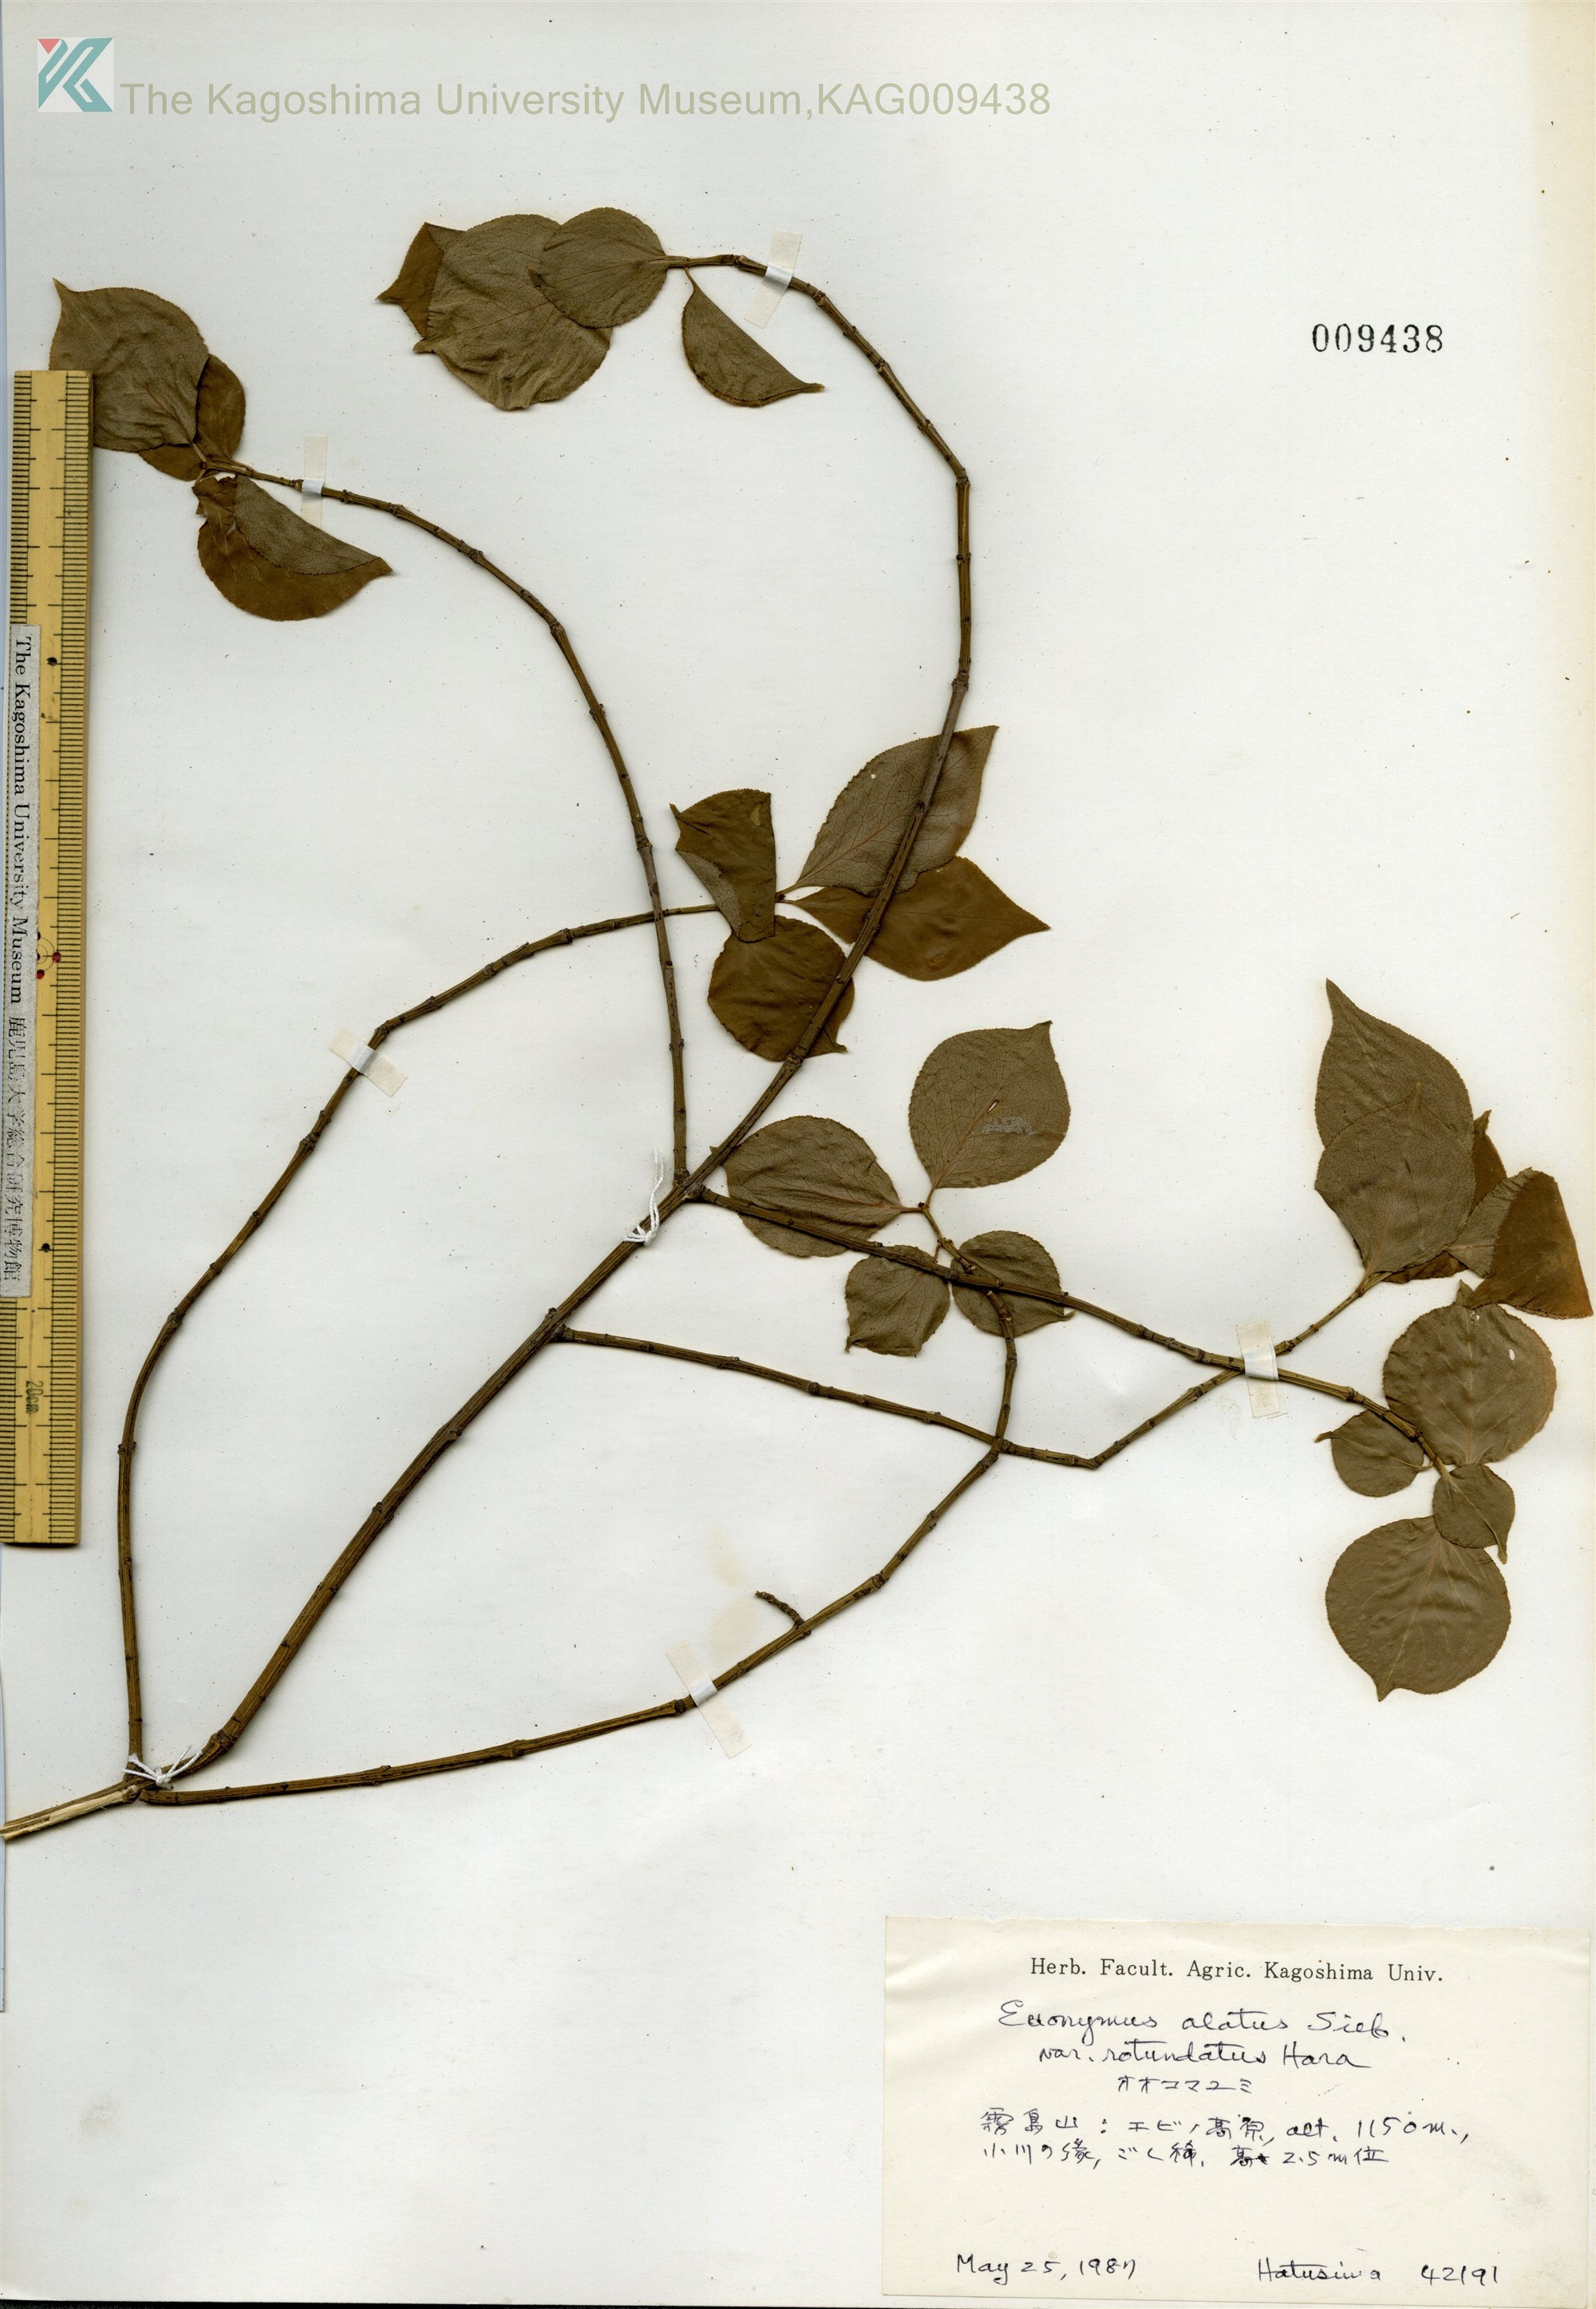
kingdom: Plantae
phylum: Tracheophyta
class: Magnoliopsida
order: Celastrales
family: Celastraceae
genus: Euonymus
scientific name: Euonymus alatus
